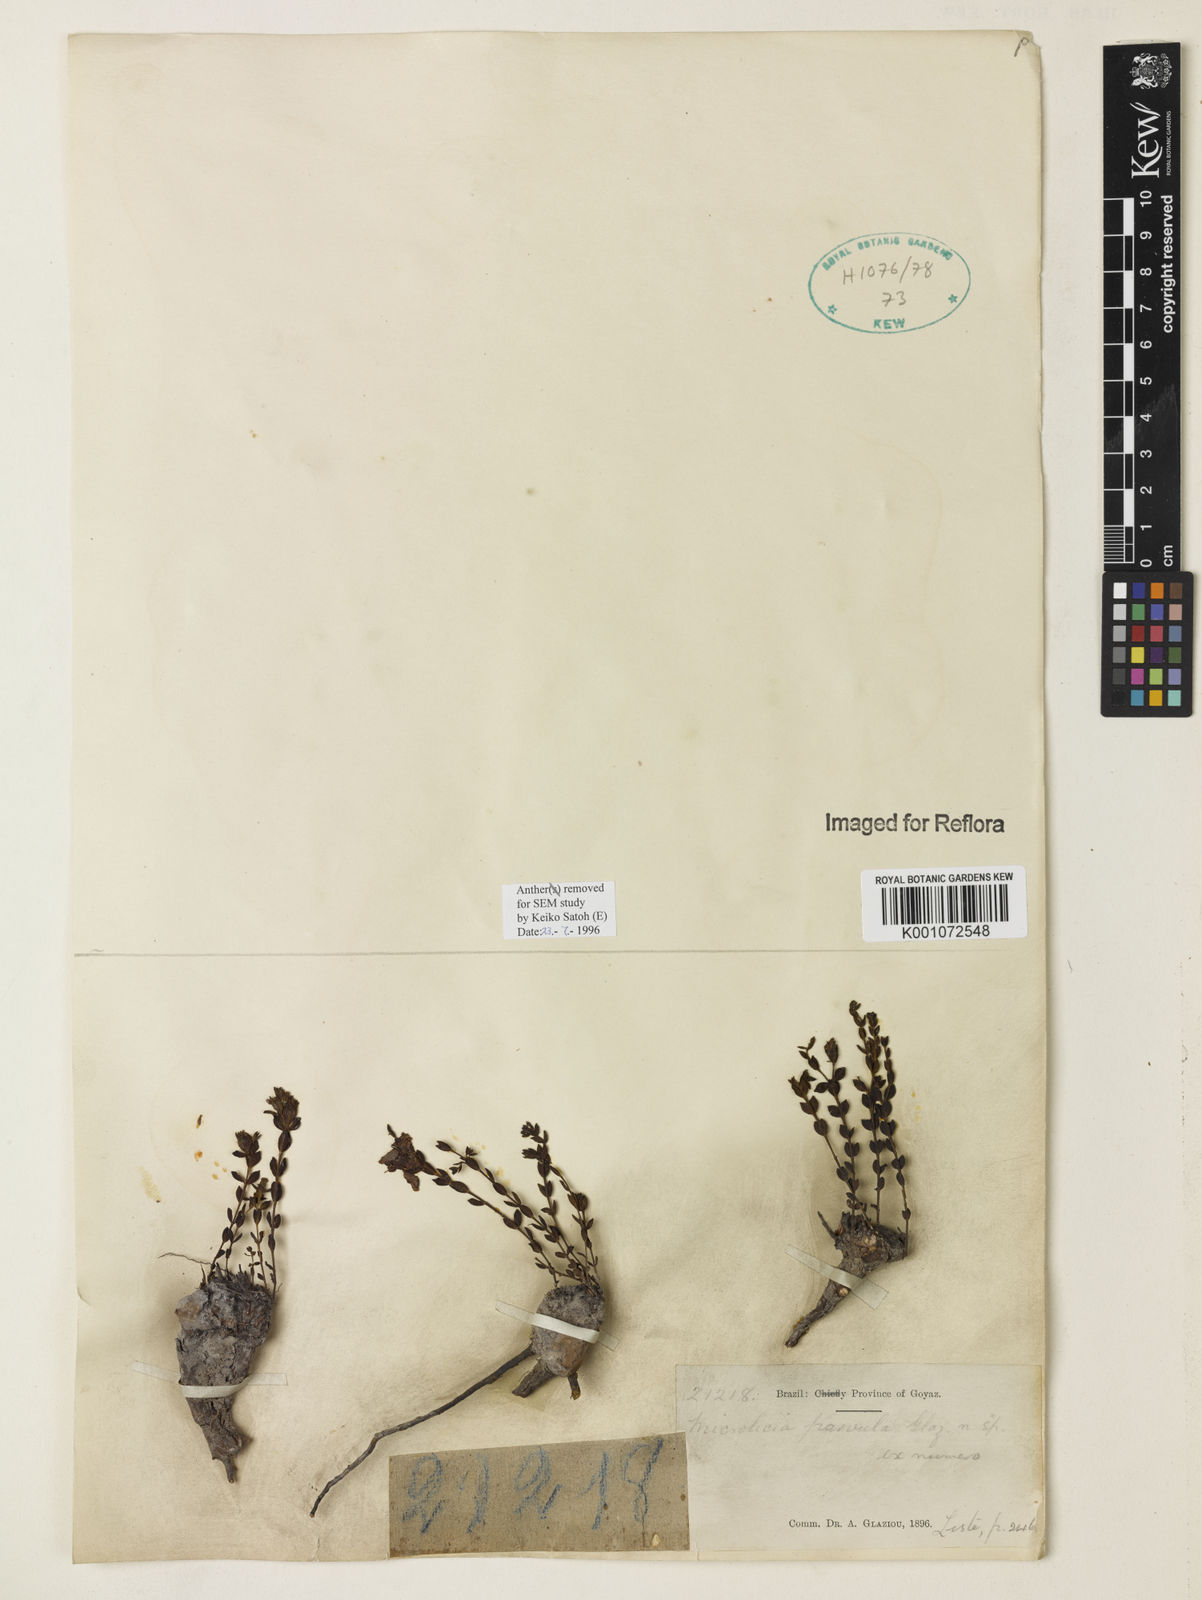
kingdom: Plantae
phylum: Tracheophyta
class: Magnoliopsida
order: Myrtales
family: Melastomataceae
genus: Microlicia
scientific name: Microlicia
